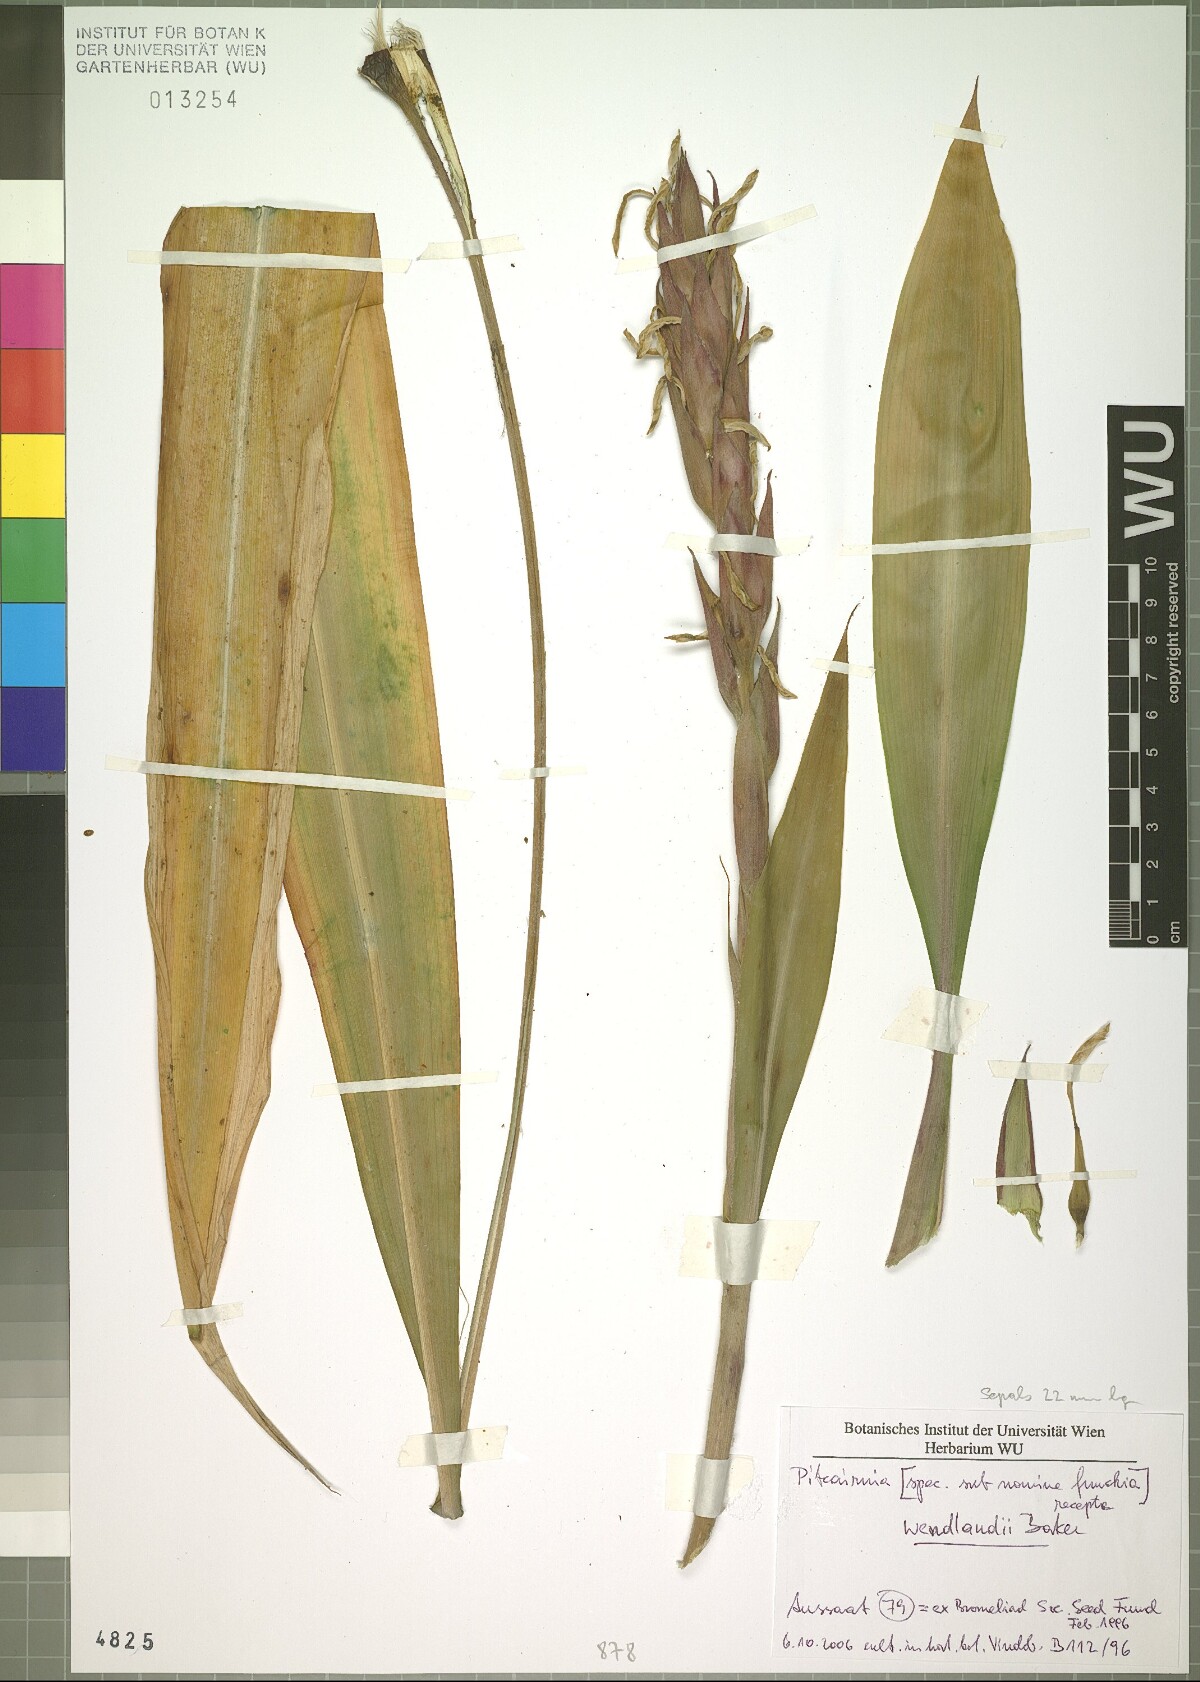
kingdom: Plantae
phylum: Tracheophyta
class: Liliopsida
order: Poales
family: Bromeliaceae
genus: Pitcairnia
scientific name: Pitcairnia wendlandii
